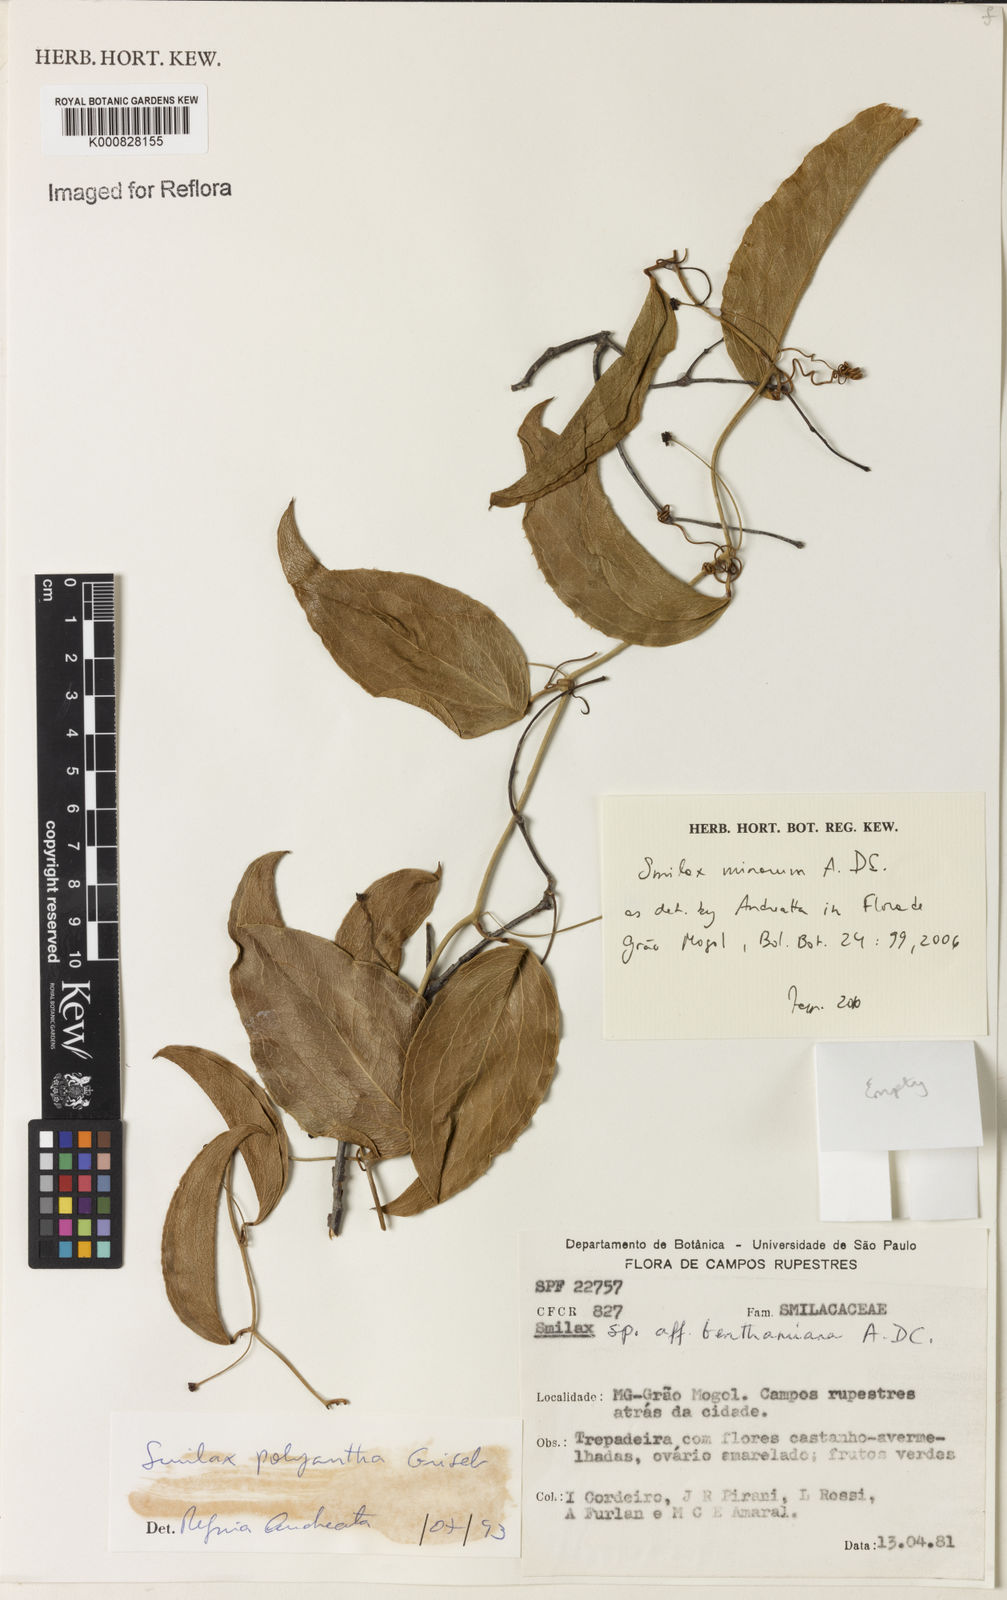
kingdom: Plantae
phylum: Tracheophyta
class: Liliopsida
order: Liliales
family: Smilacaceae
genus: Smilax
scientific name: Smilax minarum
